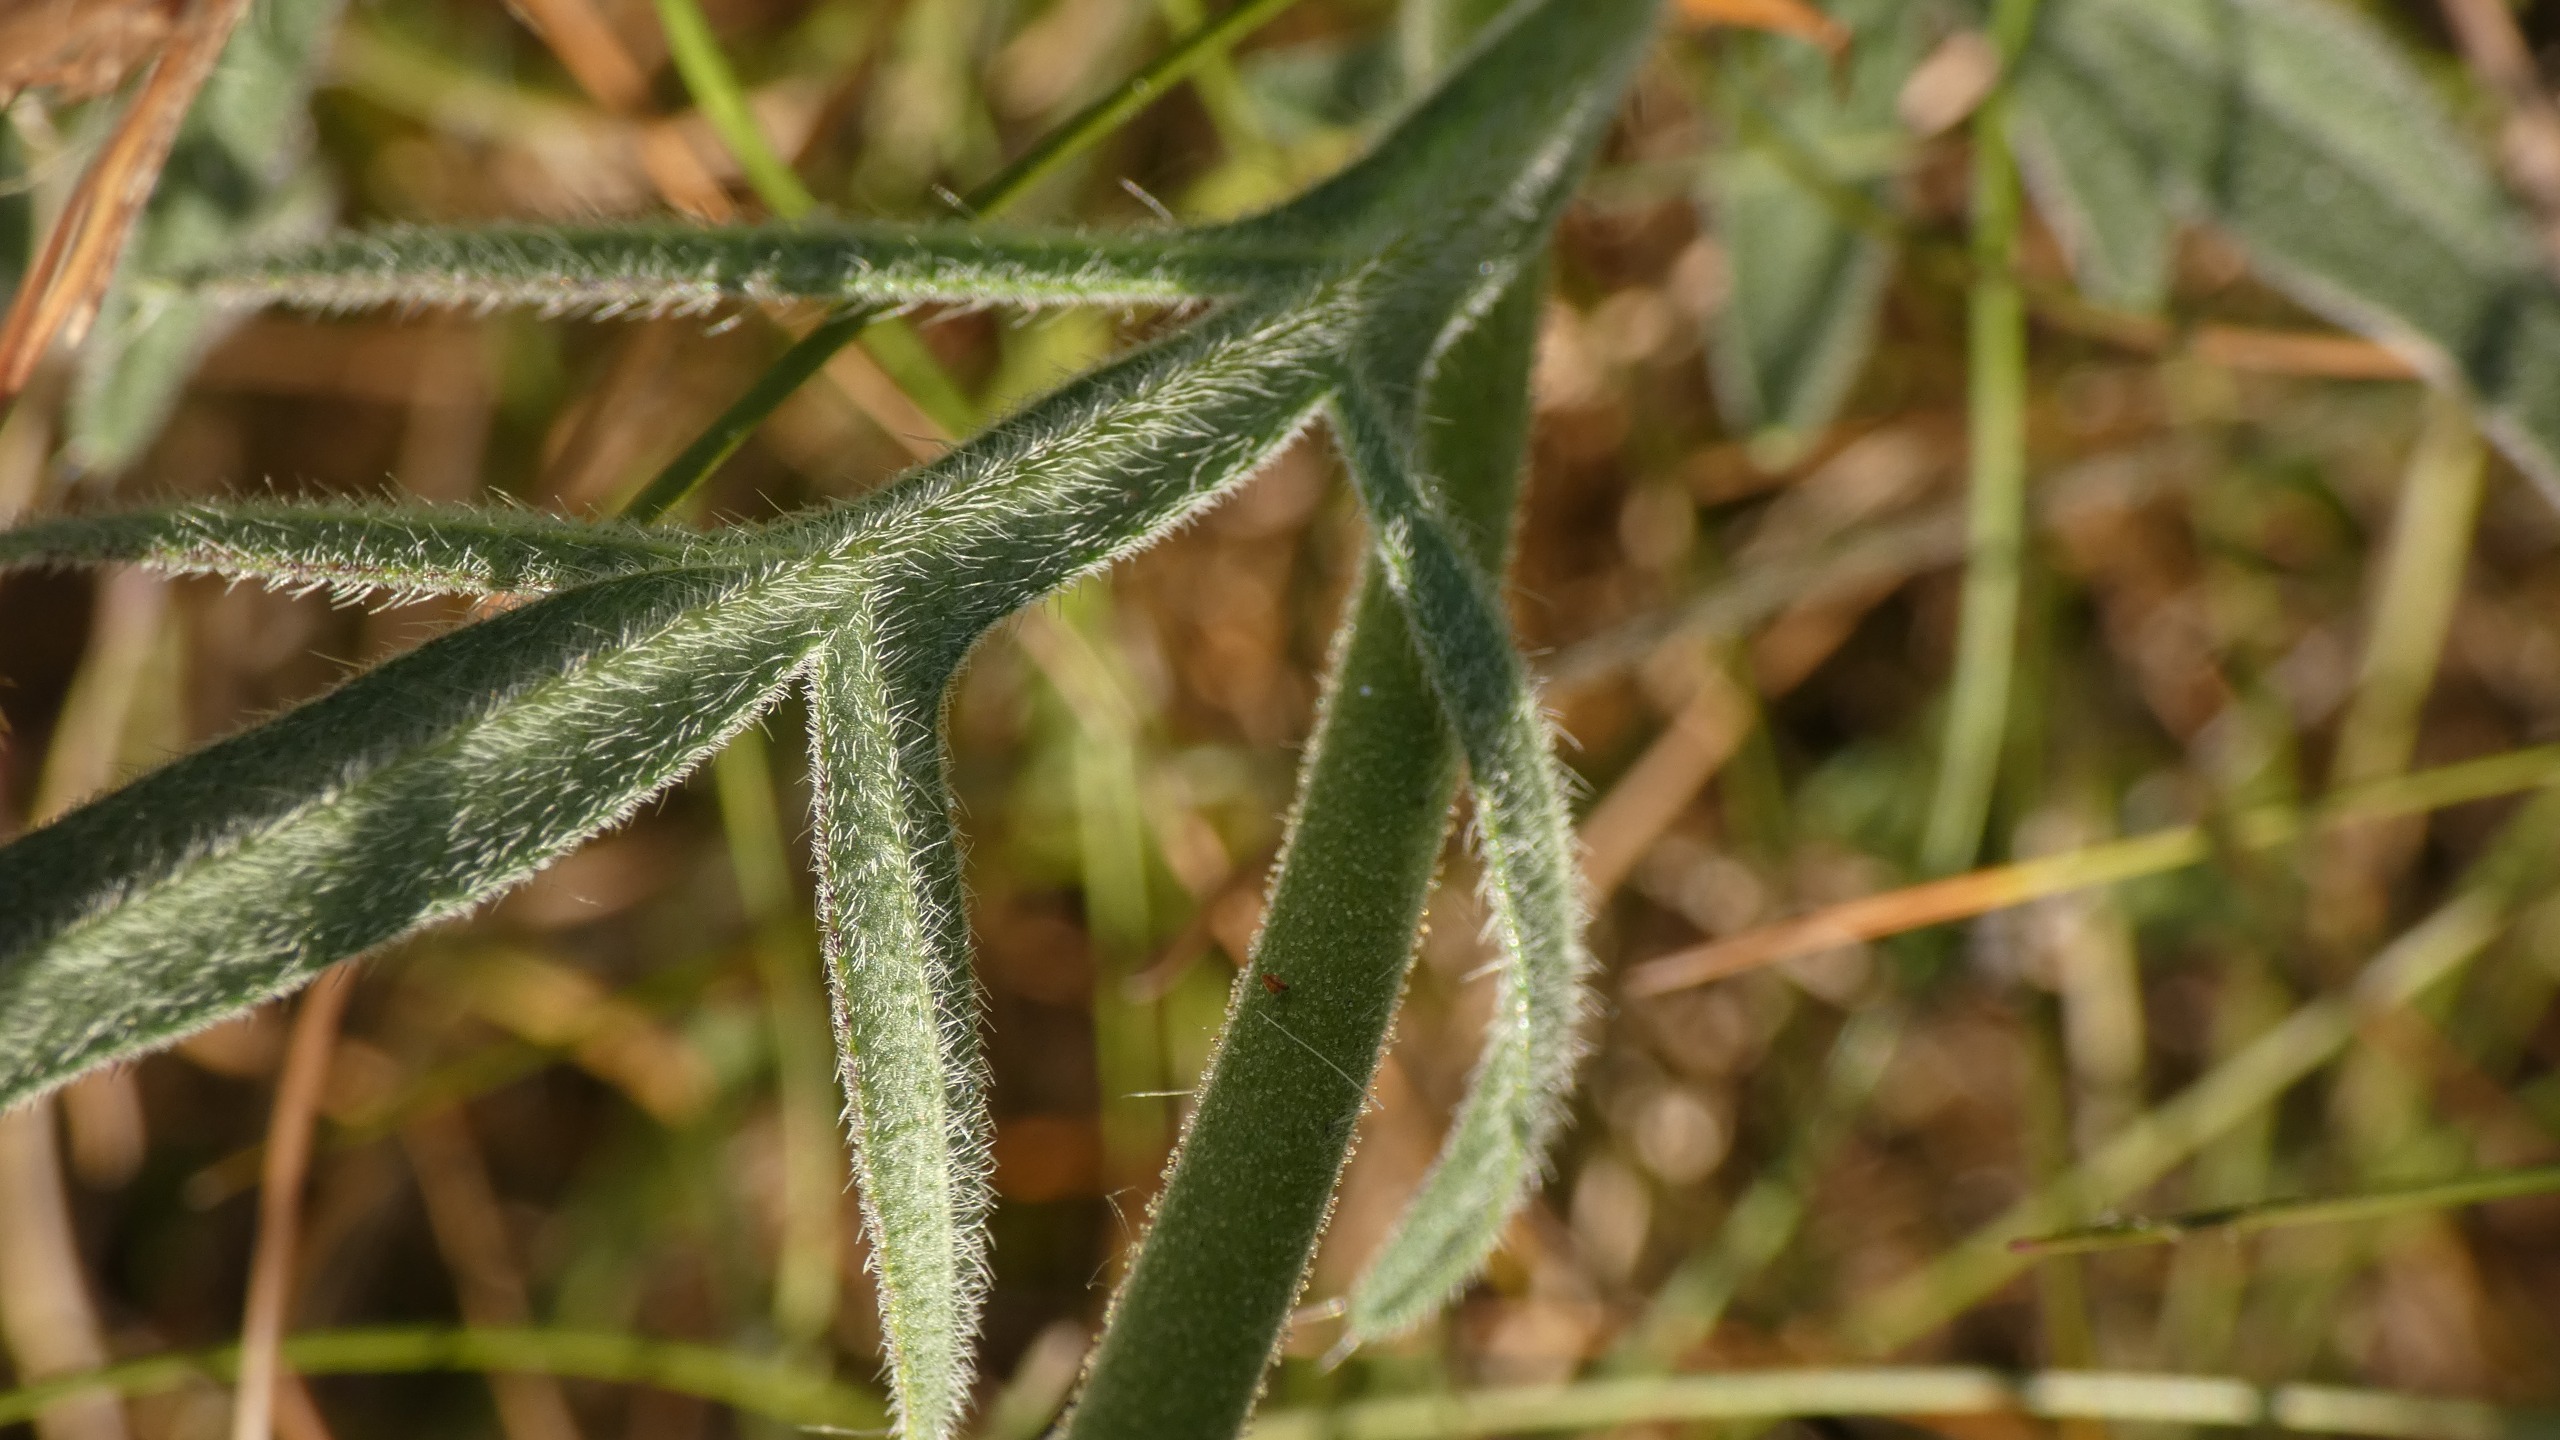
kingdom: Plantae
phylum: Tracheophyta
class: Magnoliopsida
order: Dipsacales
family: Caprifoliaceae
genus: Knautia
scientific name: Knautia arvensis
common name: Blåhat
